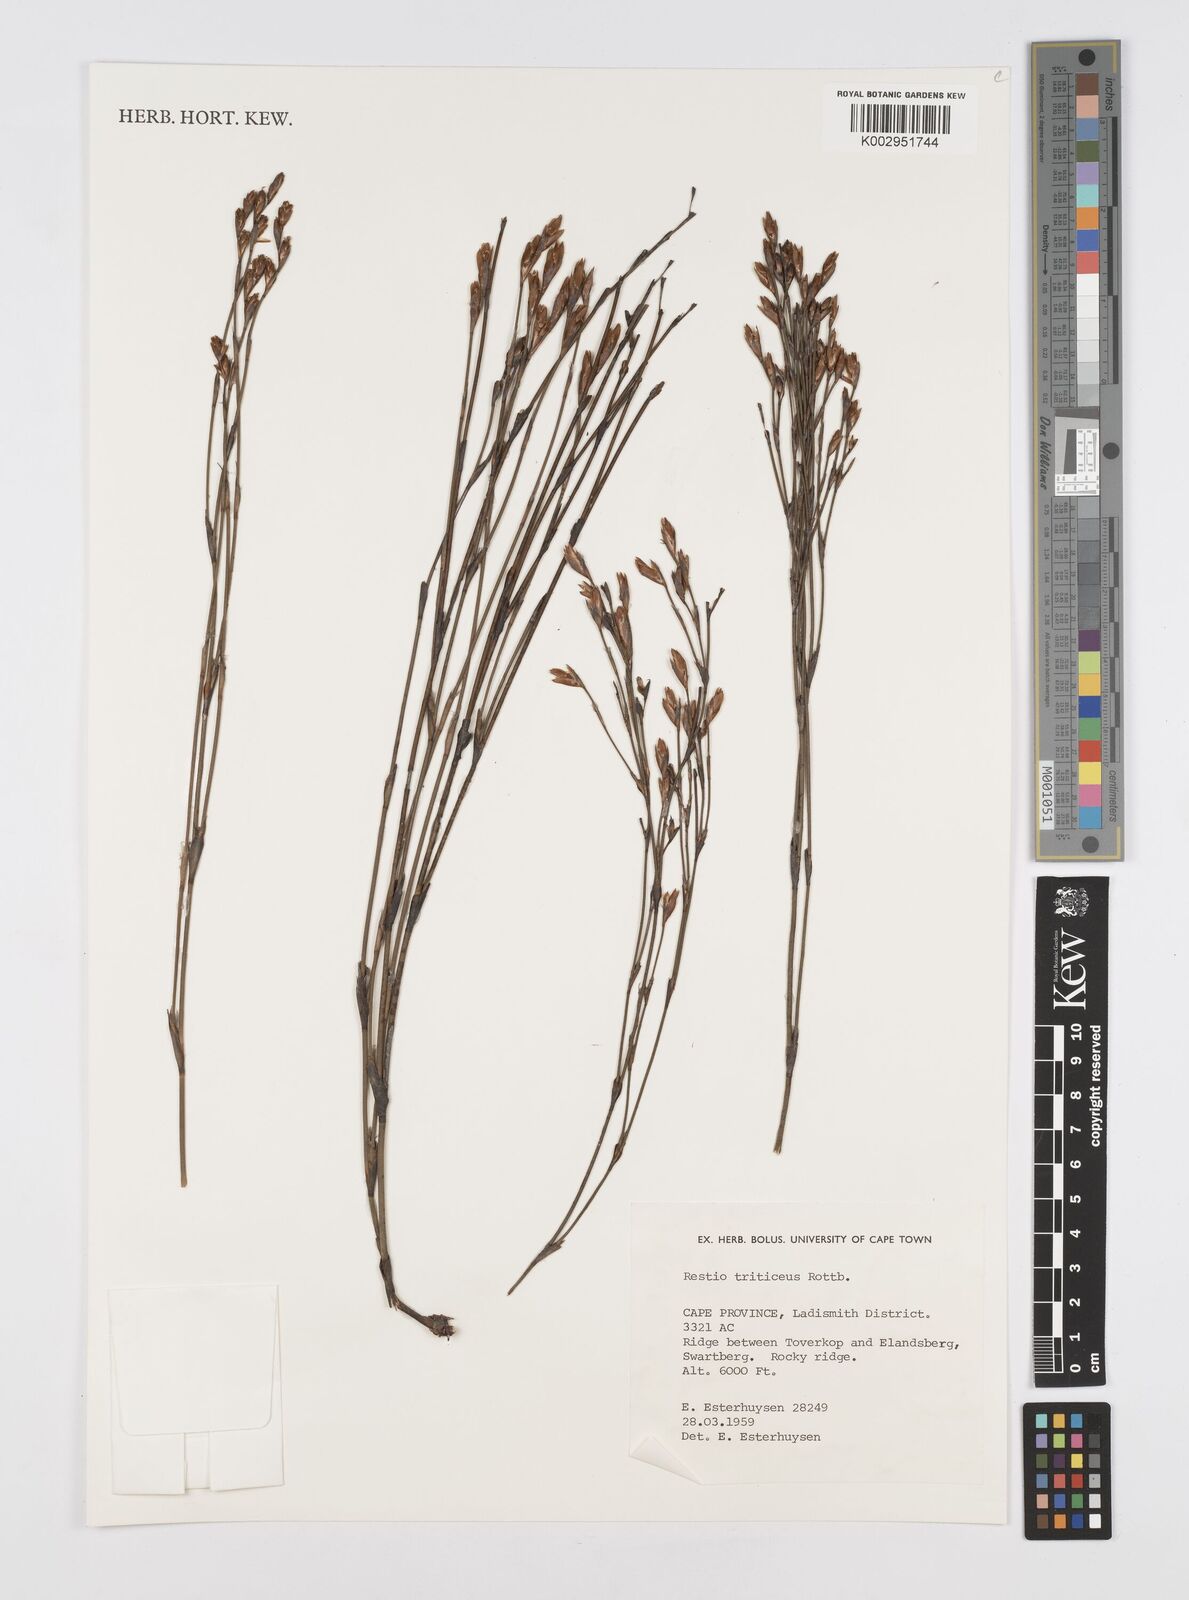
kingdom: Plantae
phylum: Tracheophyta
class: Liliopsida
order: Poales
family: Restionaceae
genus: Restio
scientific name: Restio triticeus
